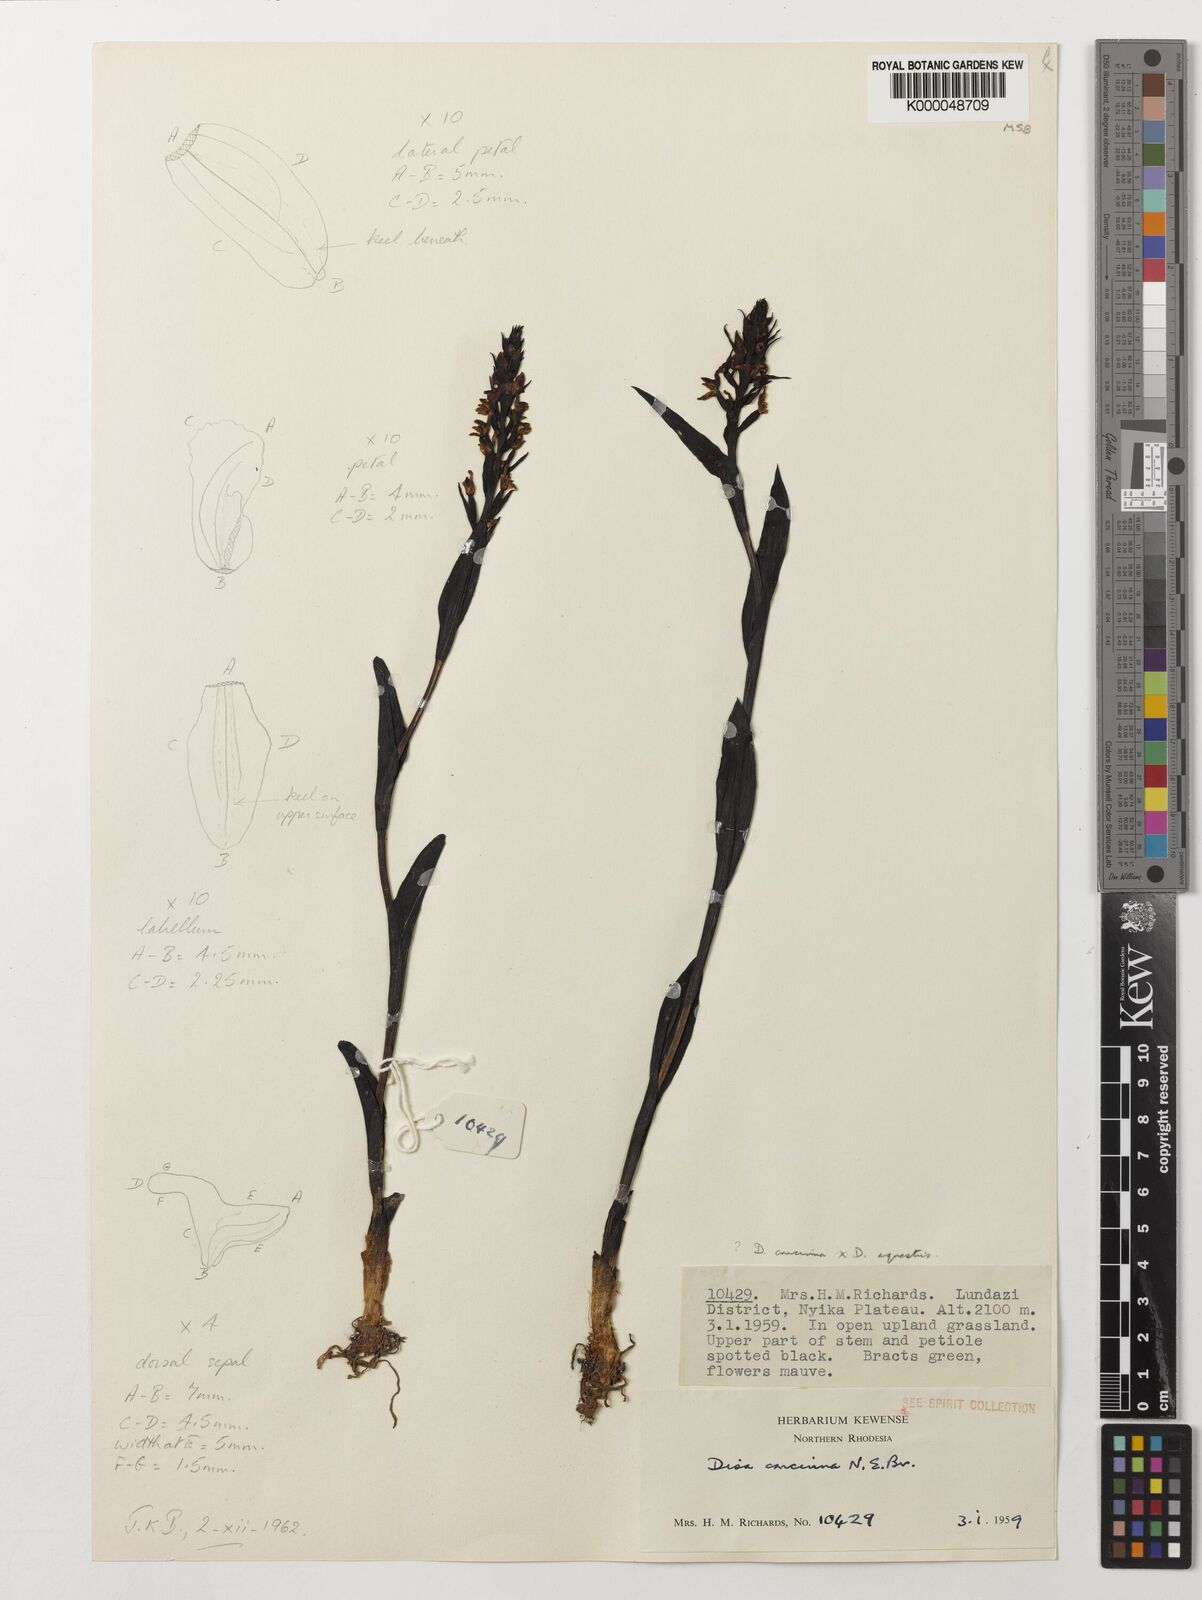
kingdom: Plantae
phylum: Tracheophyta
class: Liliopsida
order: Asparagales
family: Orchidaceae
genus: Disa
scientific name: Disa nyikensis
